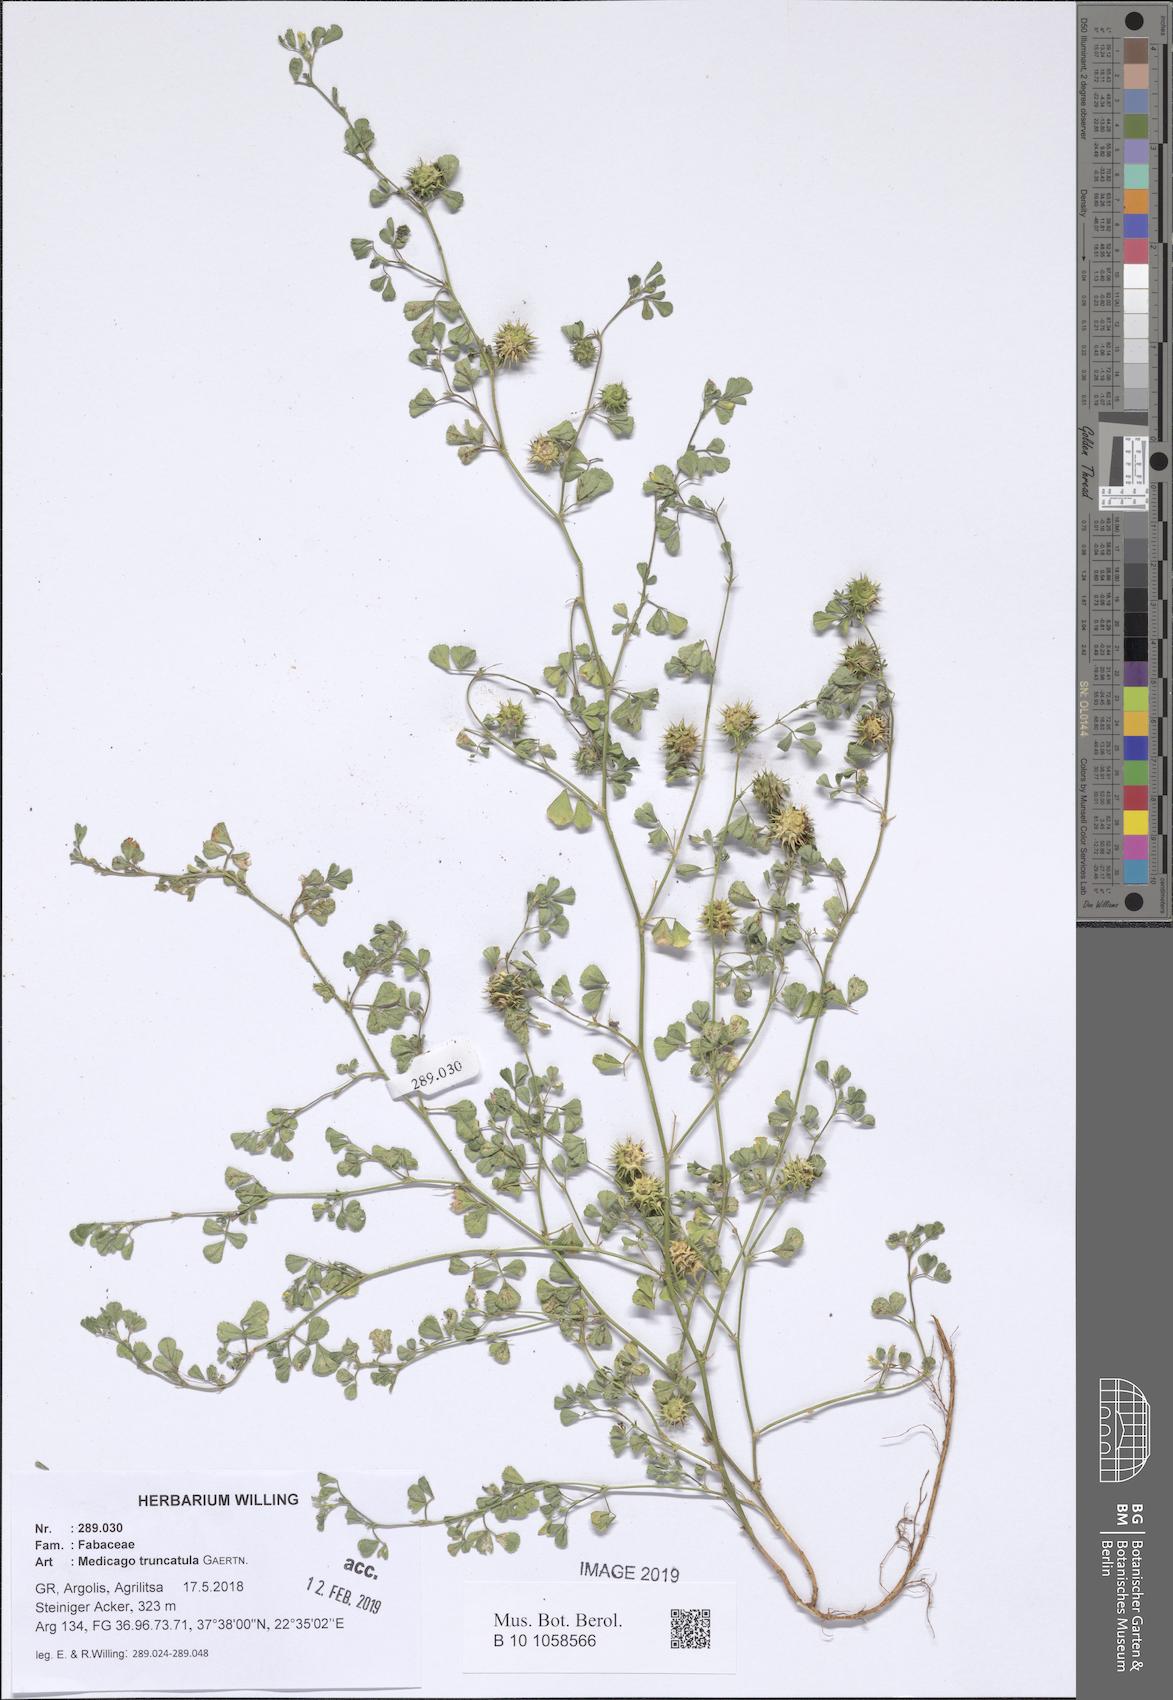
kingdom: Plantae
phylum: Tracheophyta
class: Magnoliopsida
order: Fabales
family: Fabaceae
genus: Medicago
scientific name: Medicago truncatula
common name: Strong-spined medick
